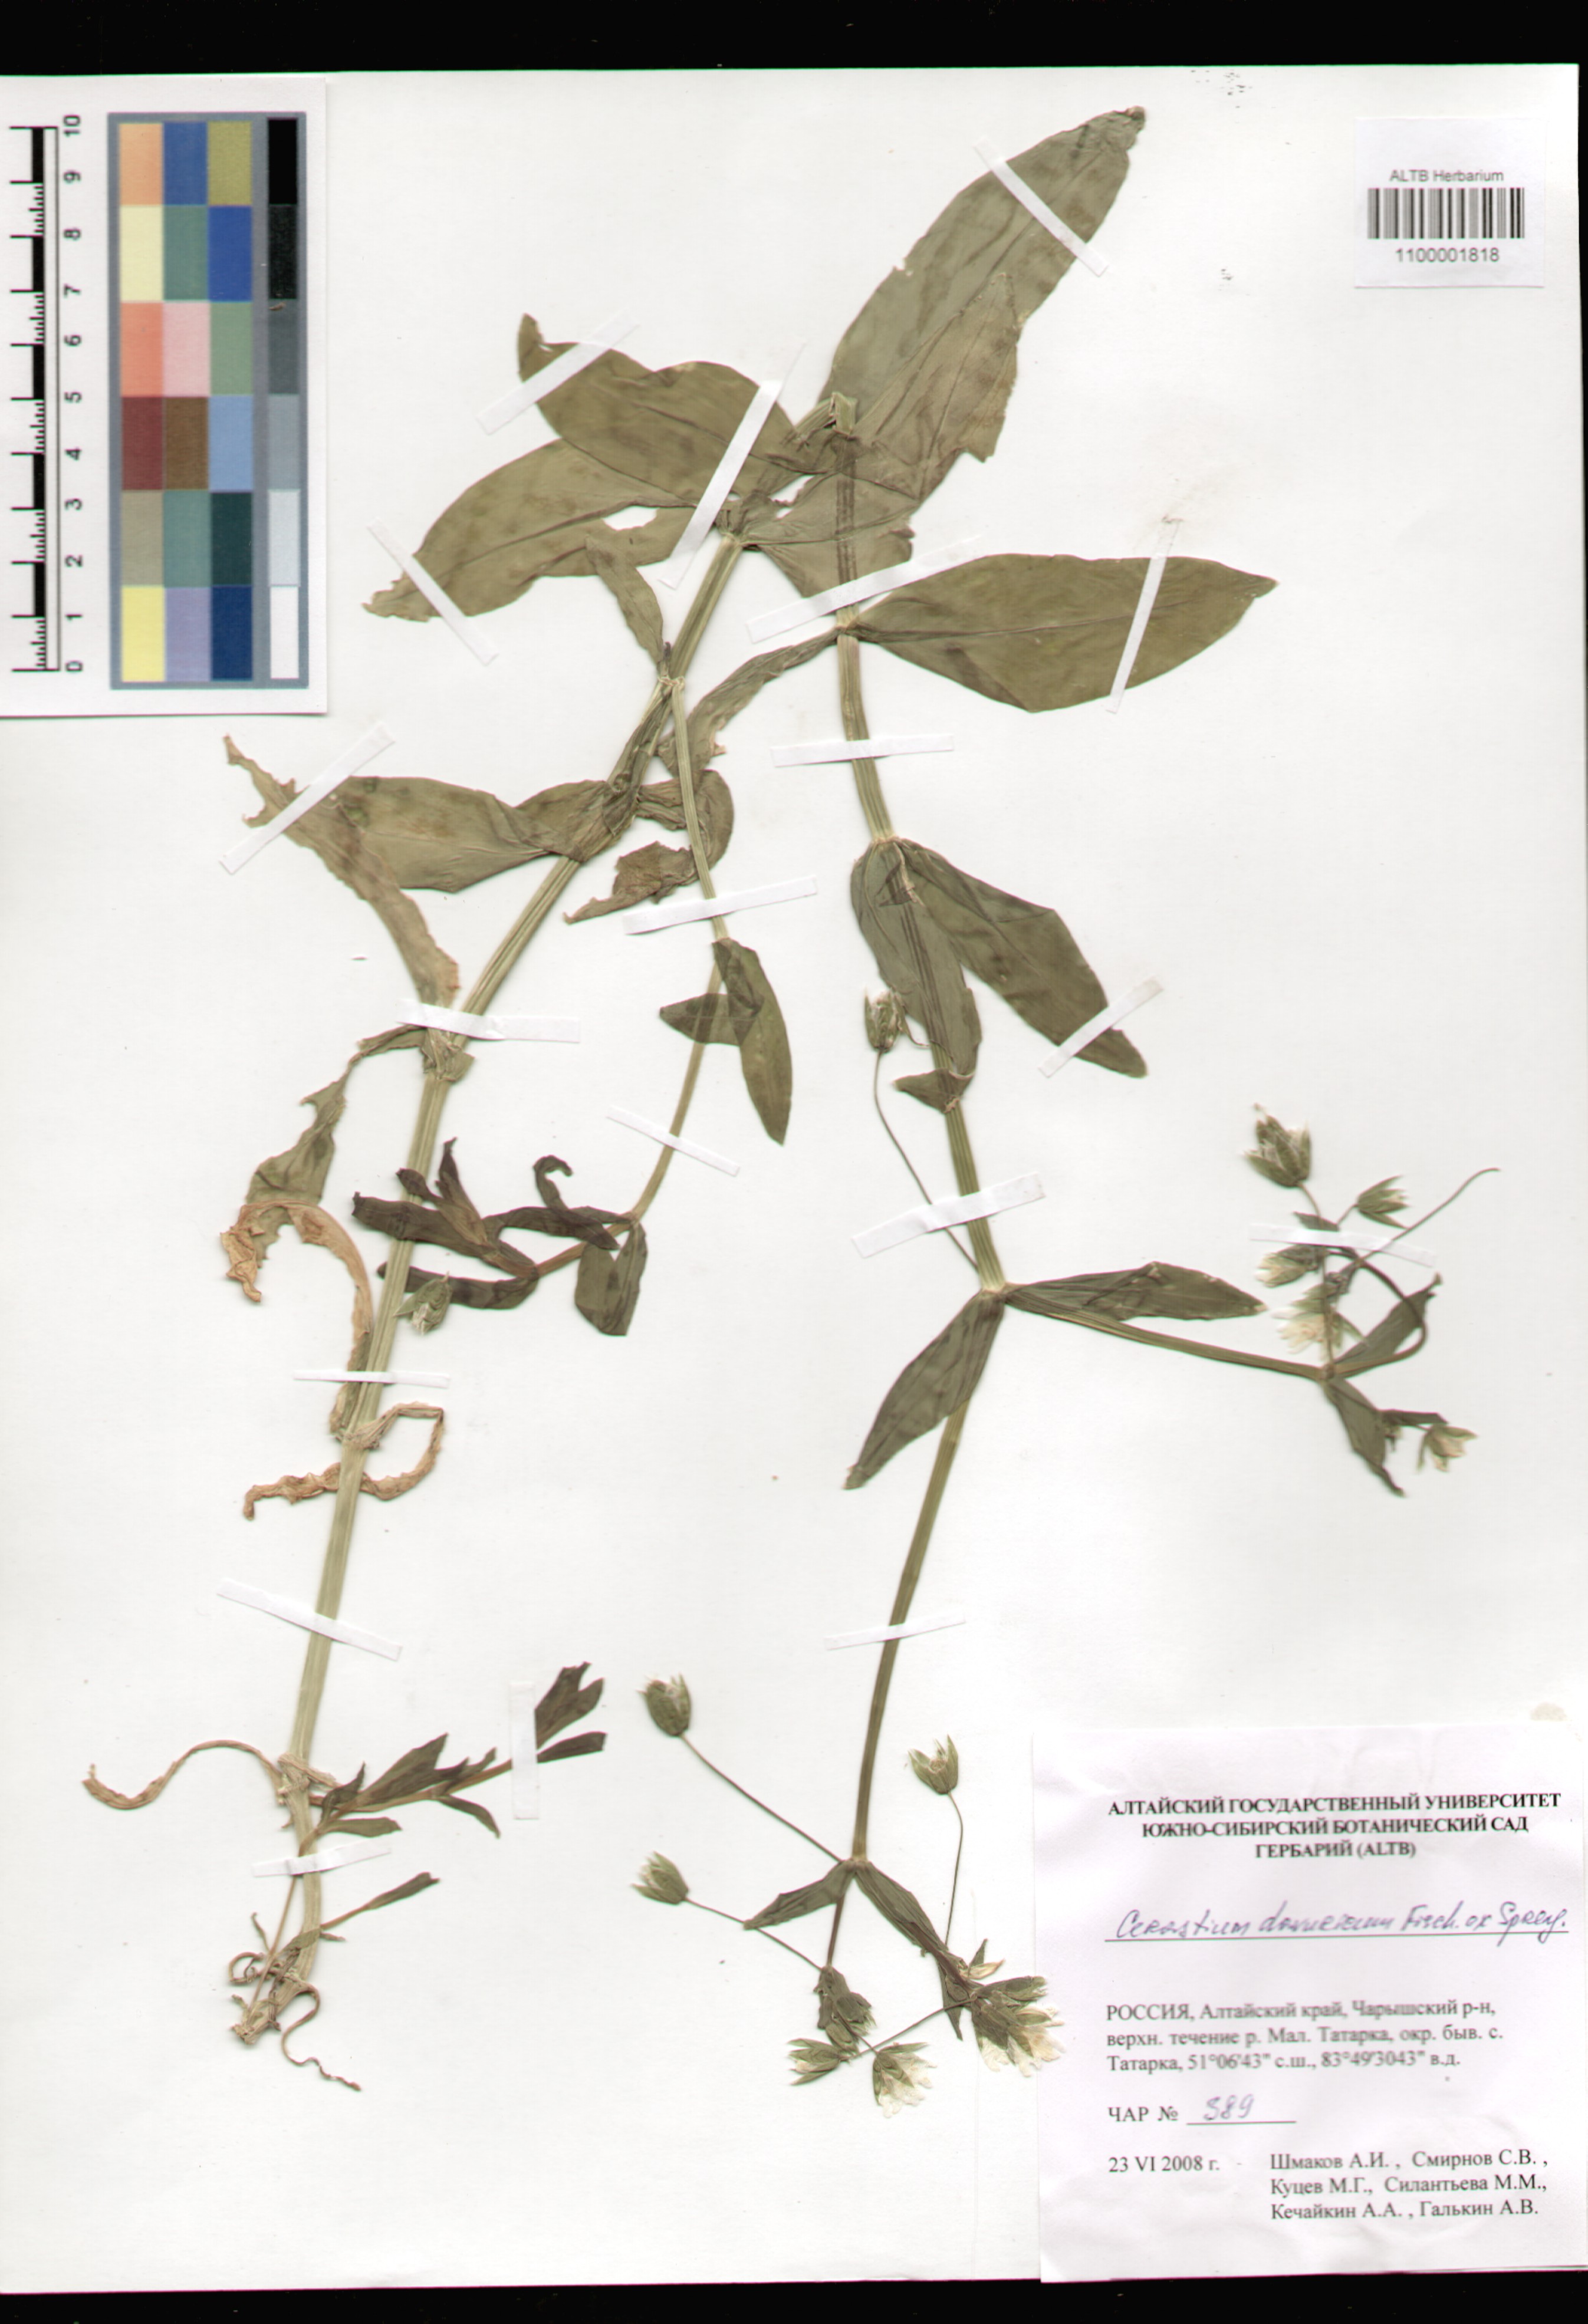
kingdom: Plantae
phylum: Tracheophyta
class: Magnoliopsida
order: Caryophyllales
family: Caryophyllaceae
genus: Dichodon
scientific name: Dichodon davuricum
